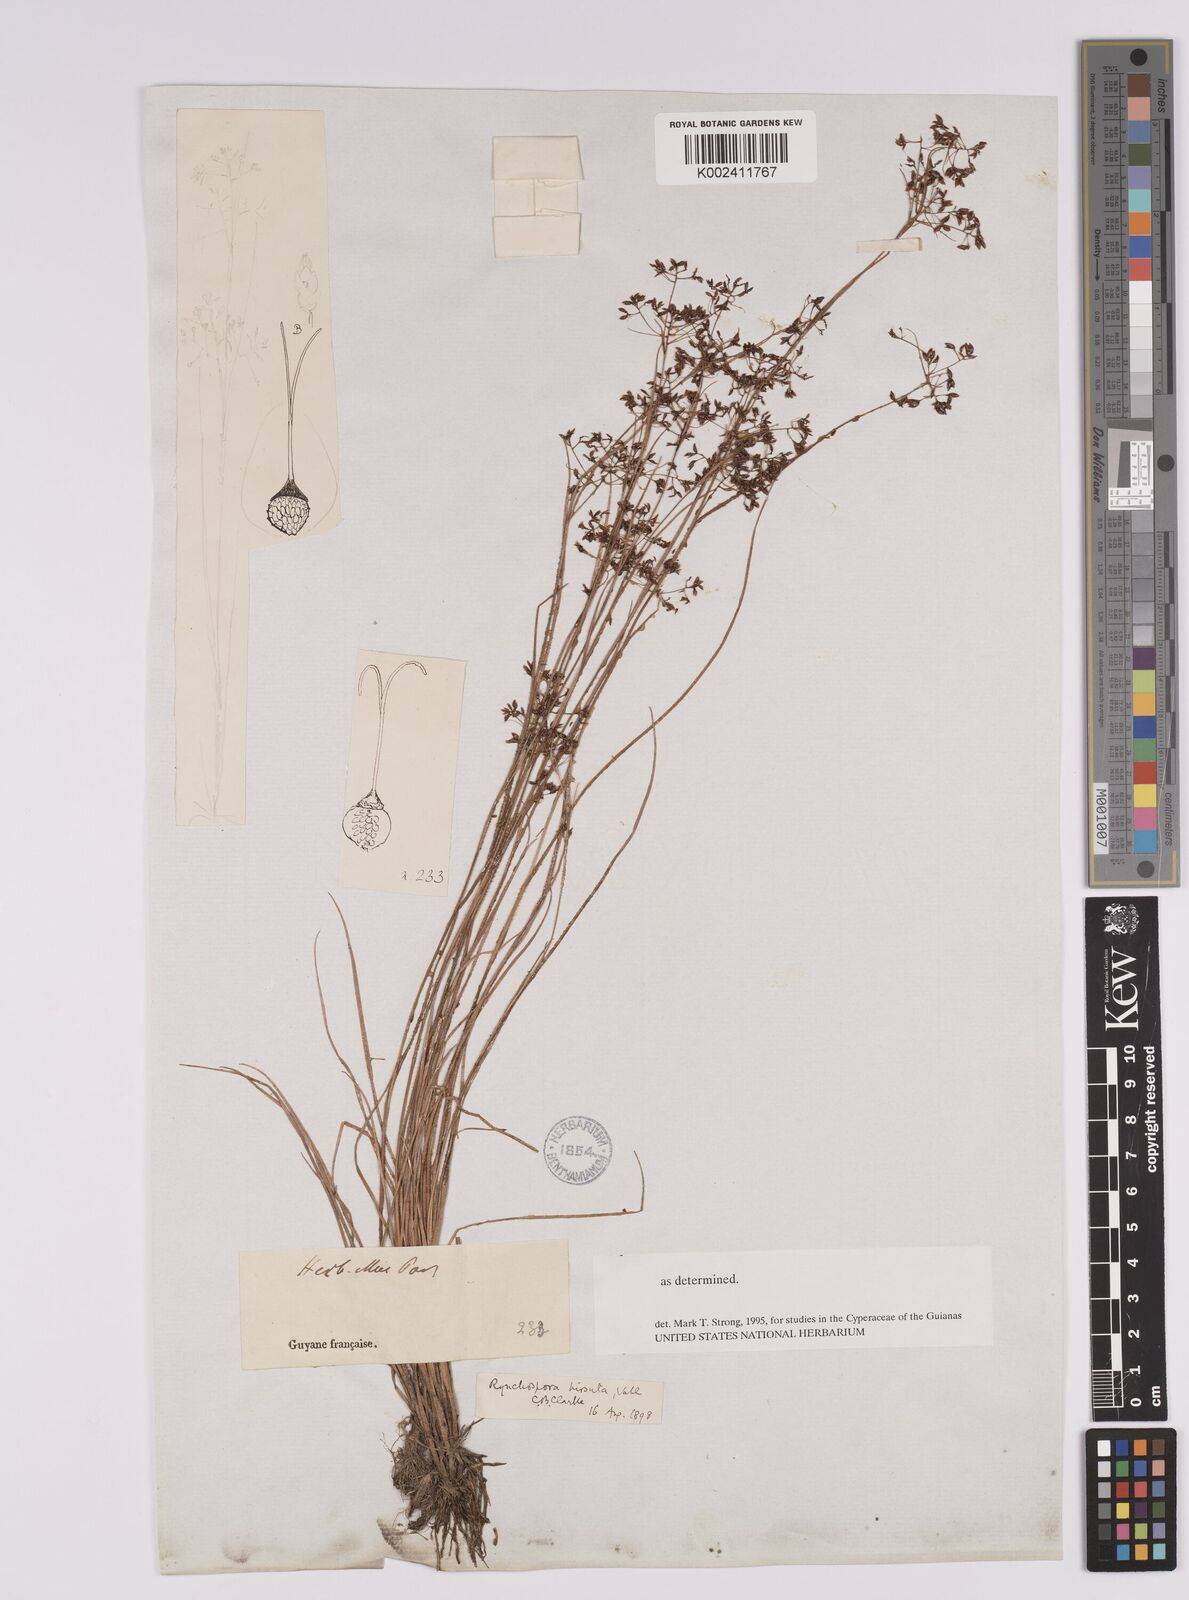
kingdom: Plantae
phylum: Tracheophyta
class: Liliopsida
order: Poales
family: Cyperaceae
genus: Rhynchospora
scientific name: Rhynchospora hirsuta
